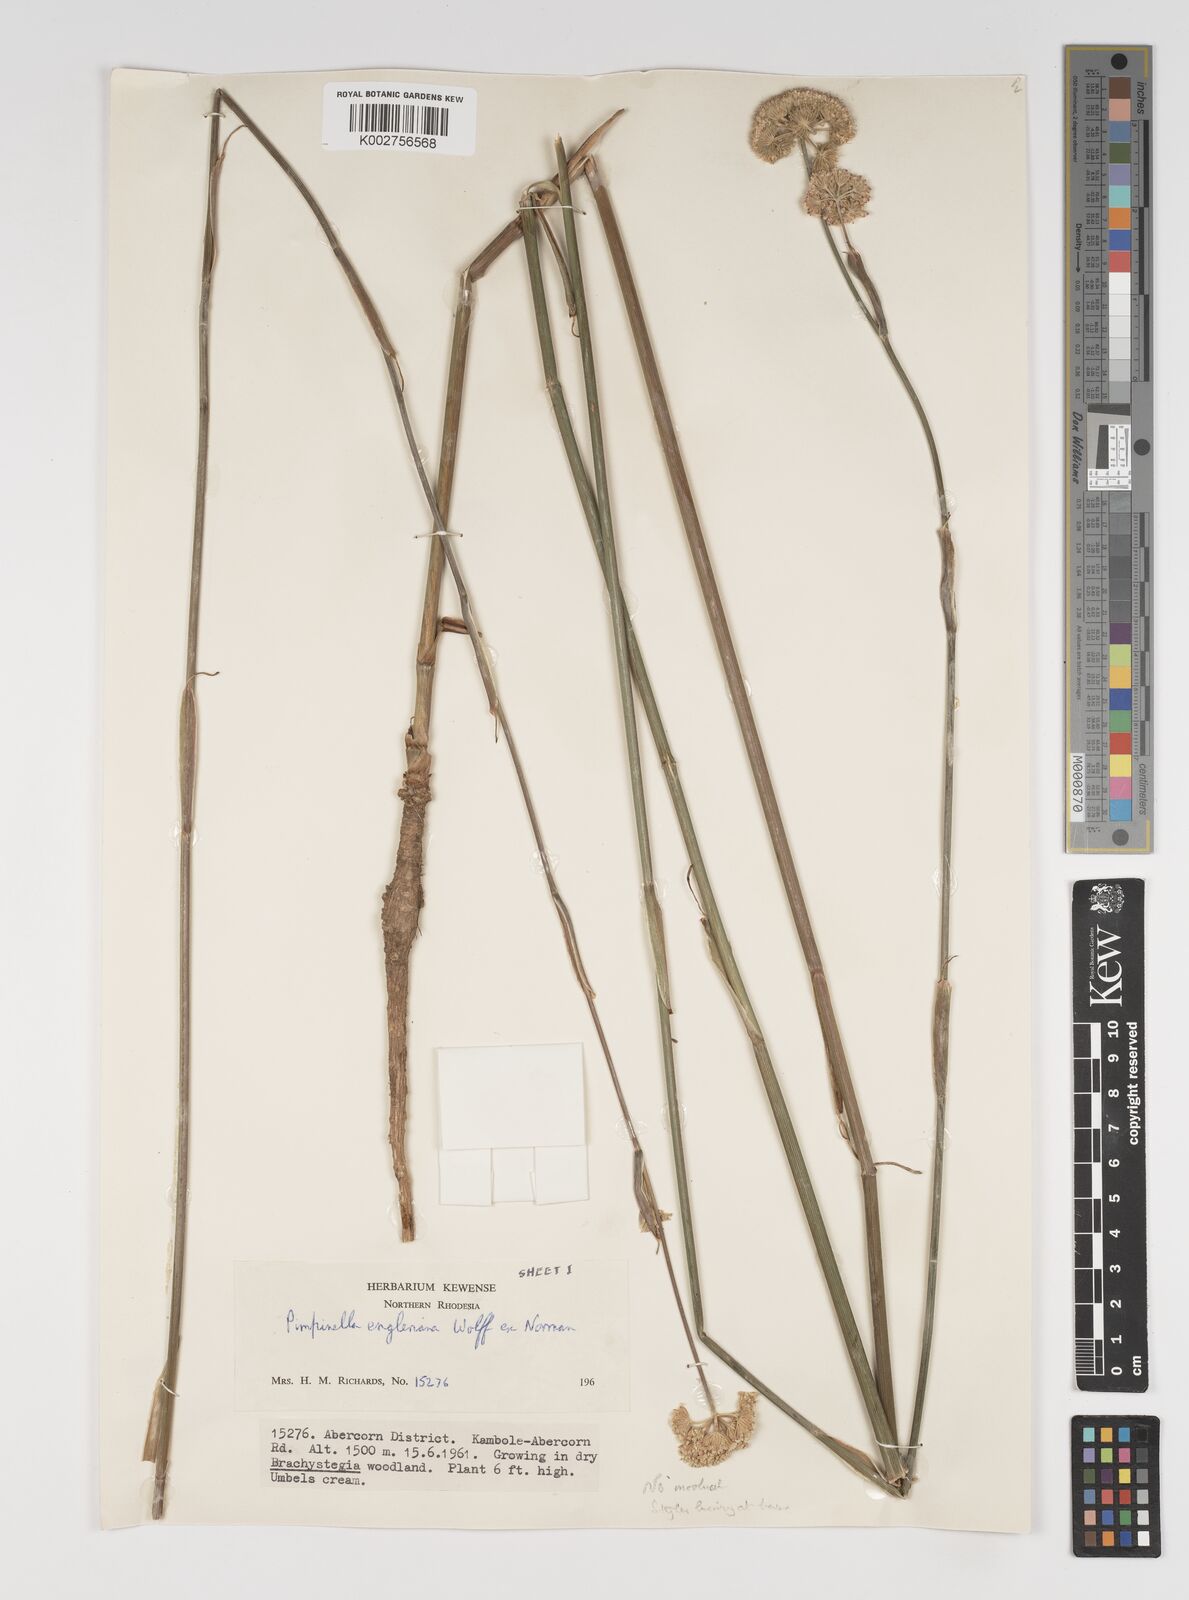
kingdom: Plantae
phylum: Tracheophyta
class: Magnoliopsida
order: Apiales
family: Apiaceae
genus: Pimpinella
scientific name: Pimpinella kingdon-wardii
